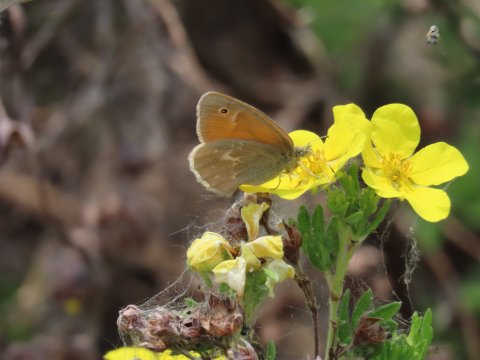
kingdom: Animalia
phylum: Arthropoda
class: Insecta
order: Lepidoptera
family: Nymphalidae
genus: Coenonympha
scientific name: Coenonympha tullia
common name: Large Heath
